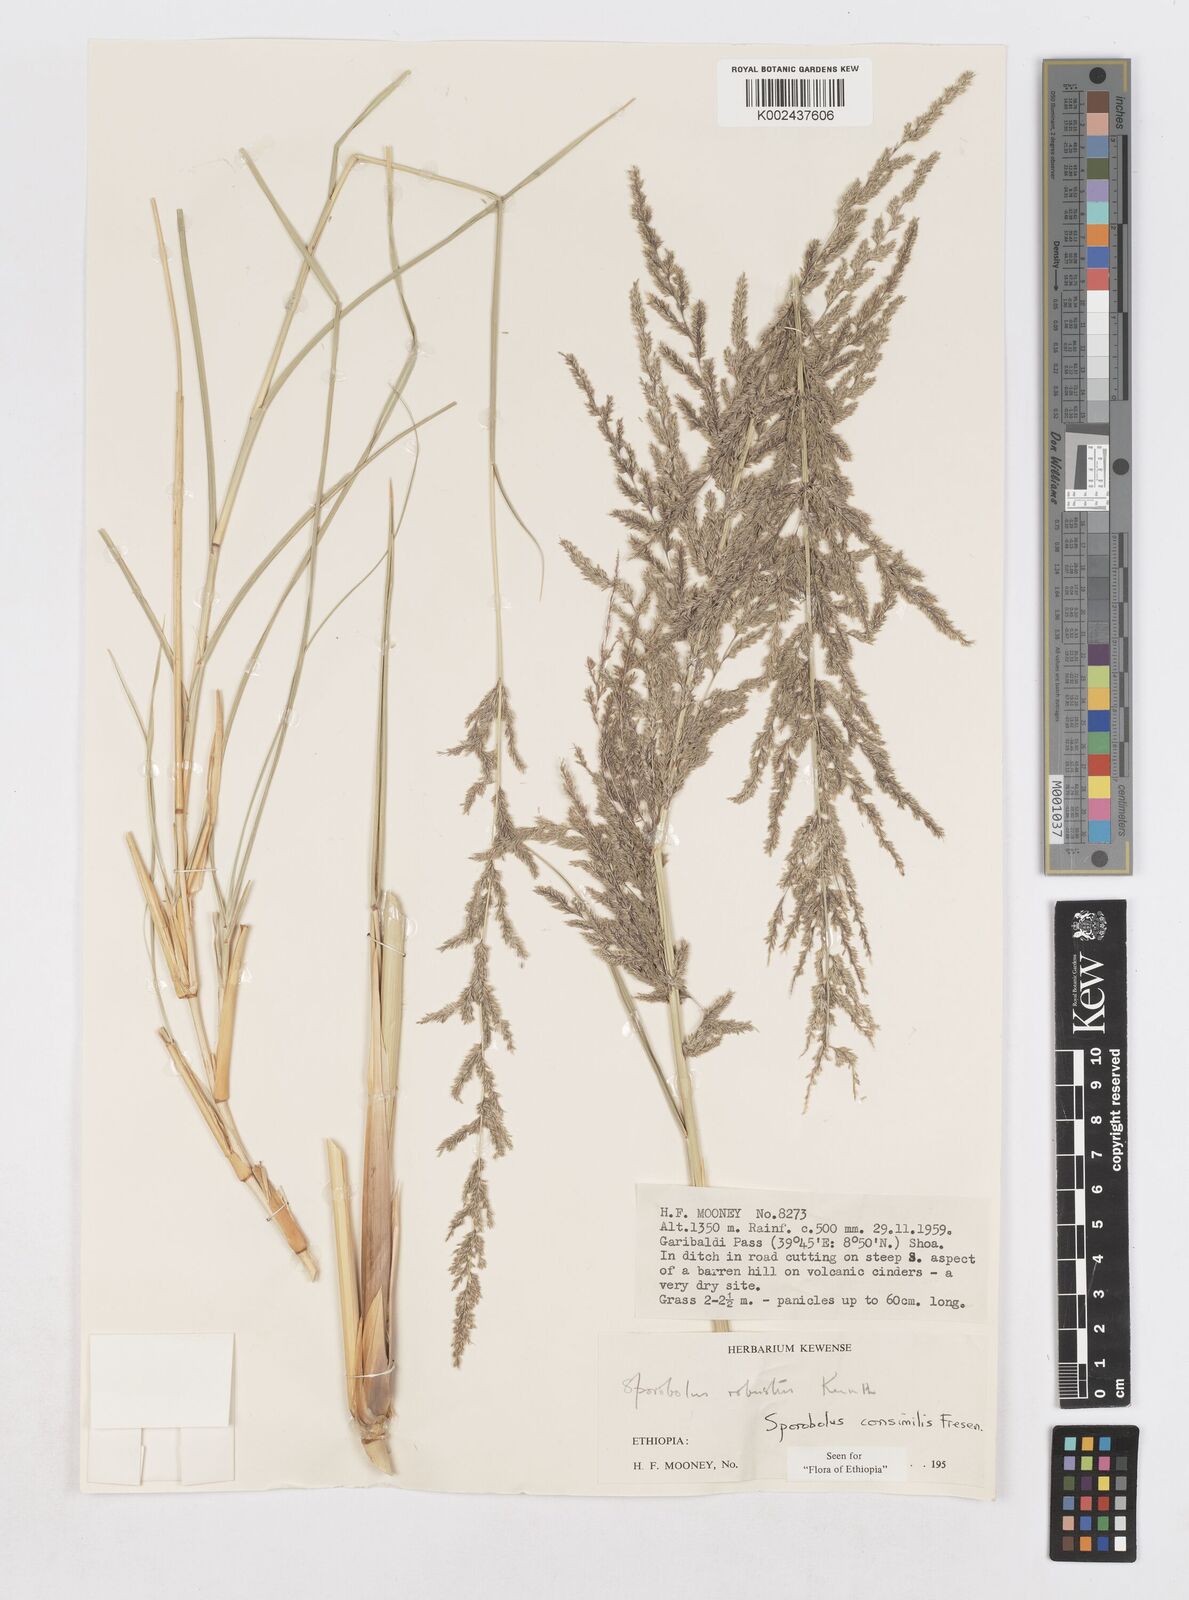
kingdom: Plantae
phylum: Tracheophyta
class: Liliopsida
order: Poales
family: Poaceae
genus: Sporobolus
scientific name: Sporobolus consimilis
